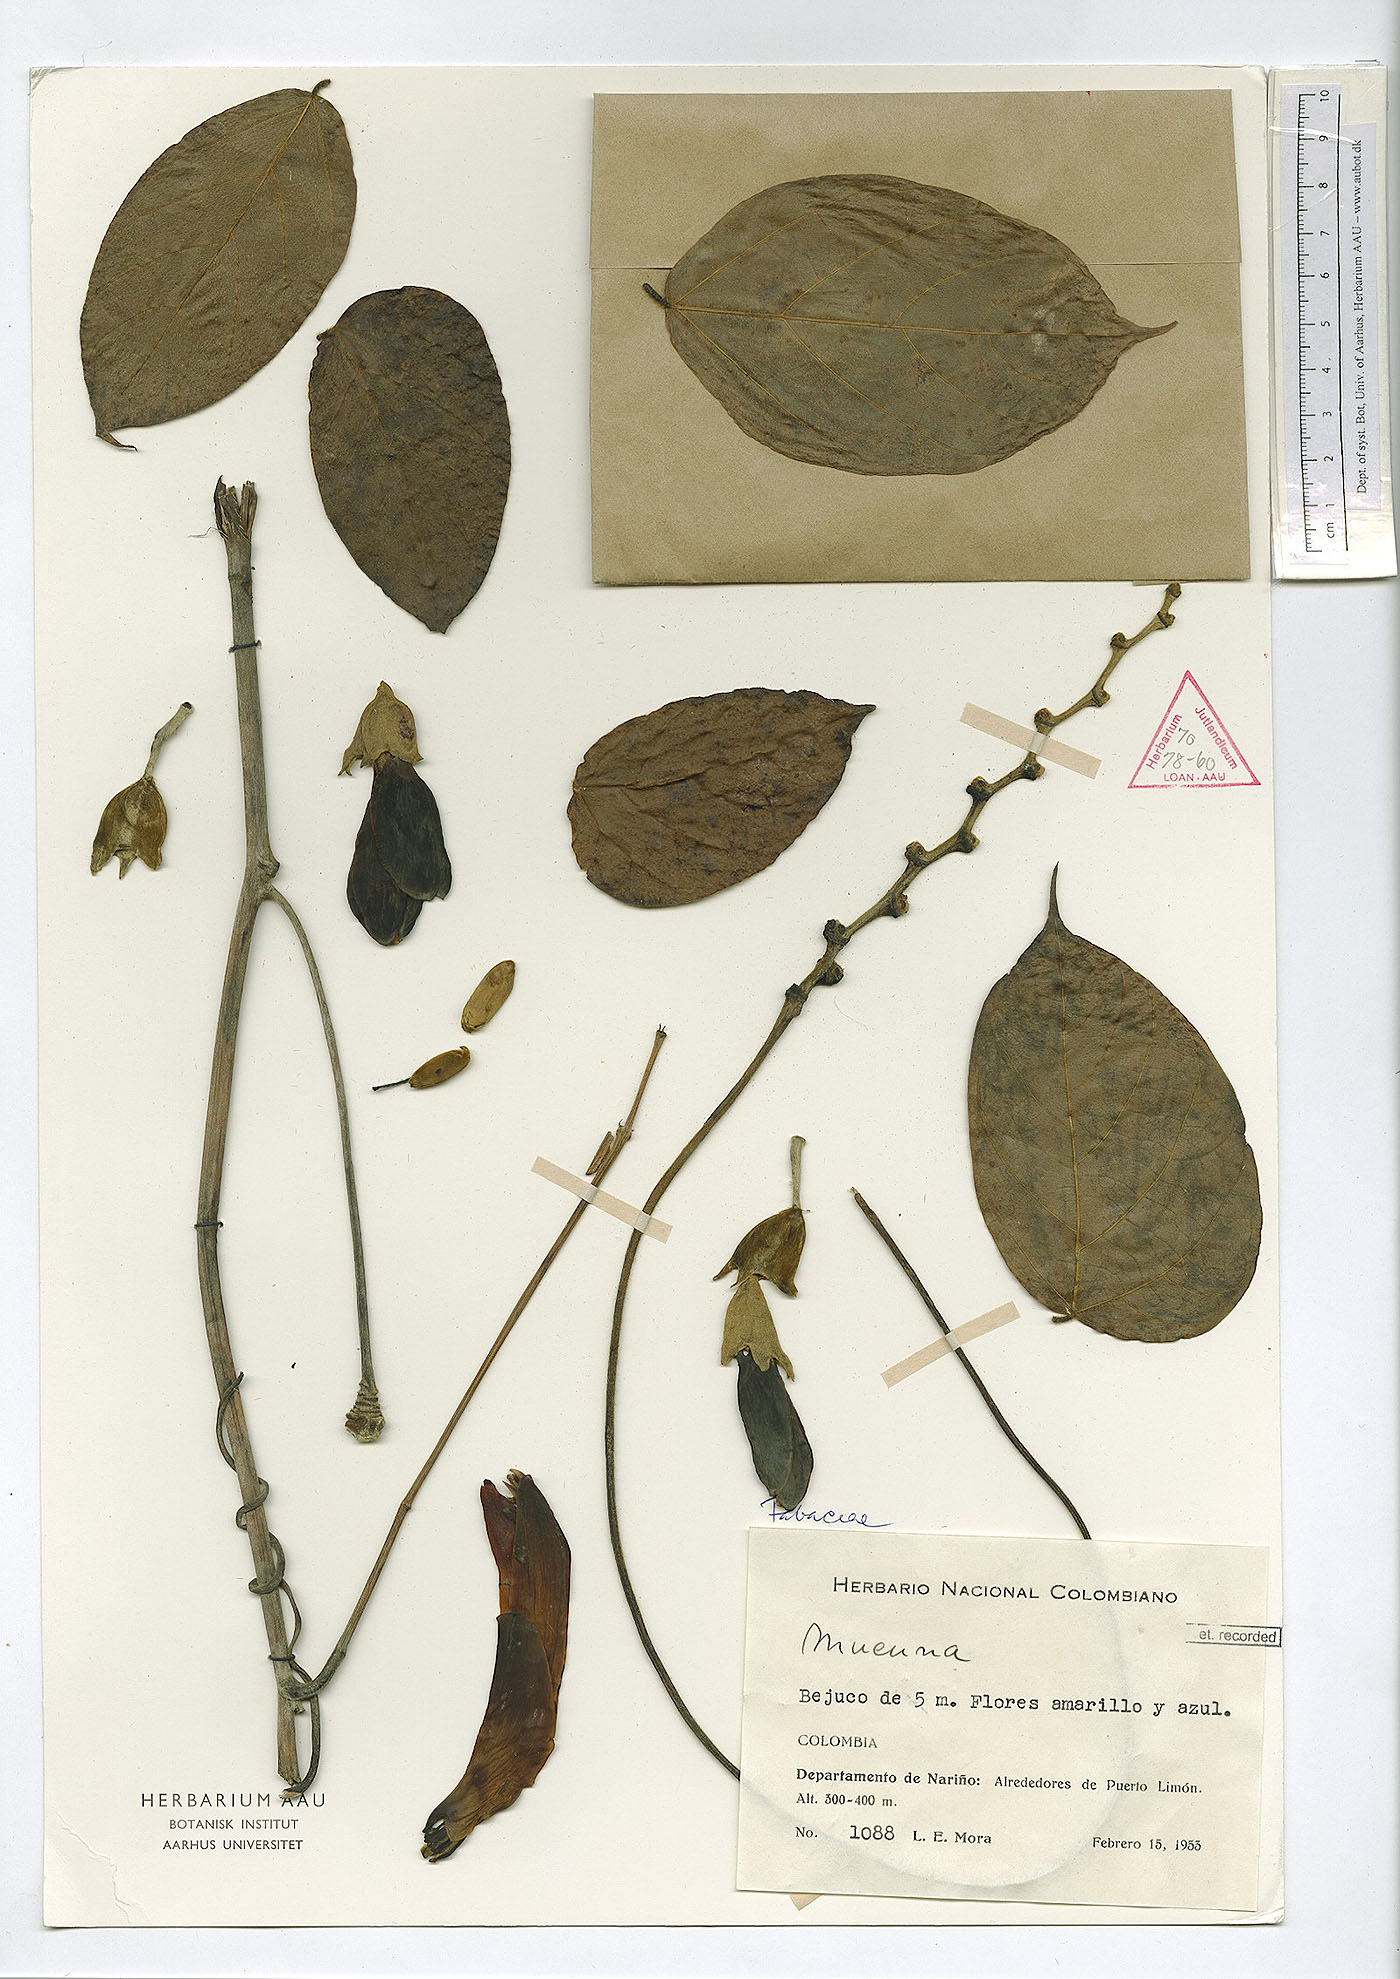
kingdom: Plantae
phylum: Tracheophyta
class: Magnoliopsida
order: Fabales
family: Fabaceae
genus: Mucuna
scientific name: Mucuna
